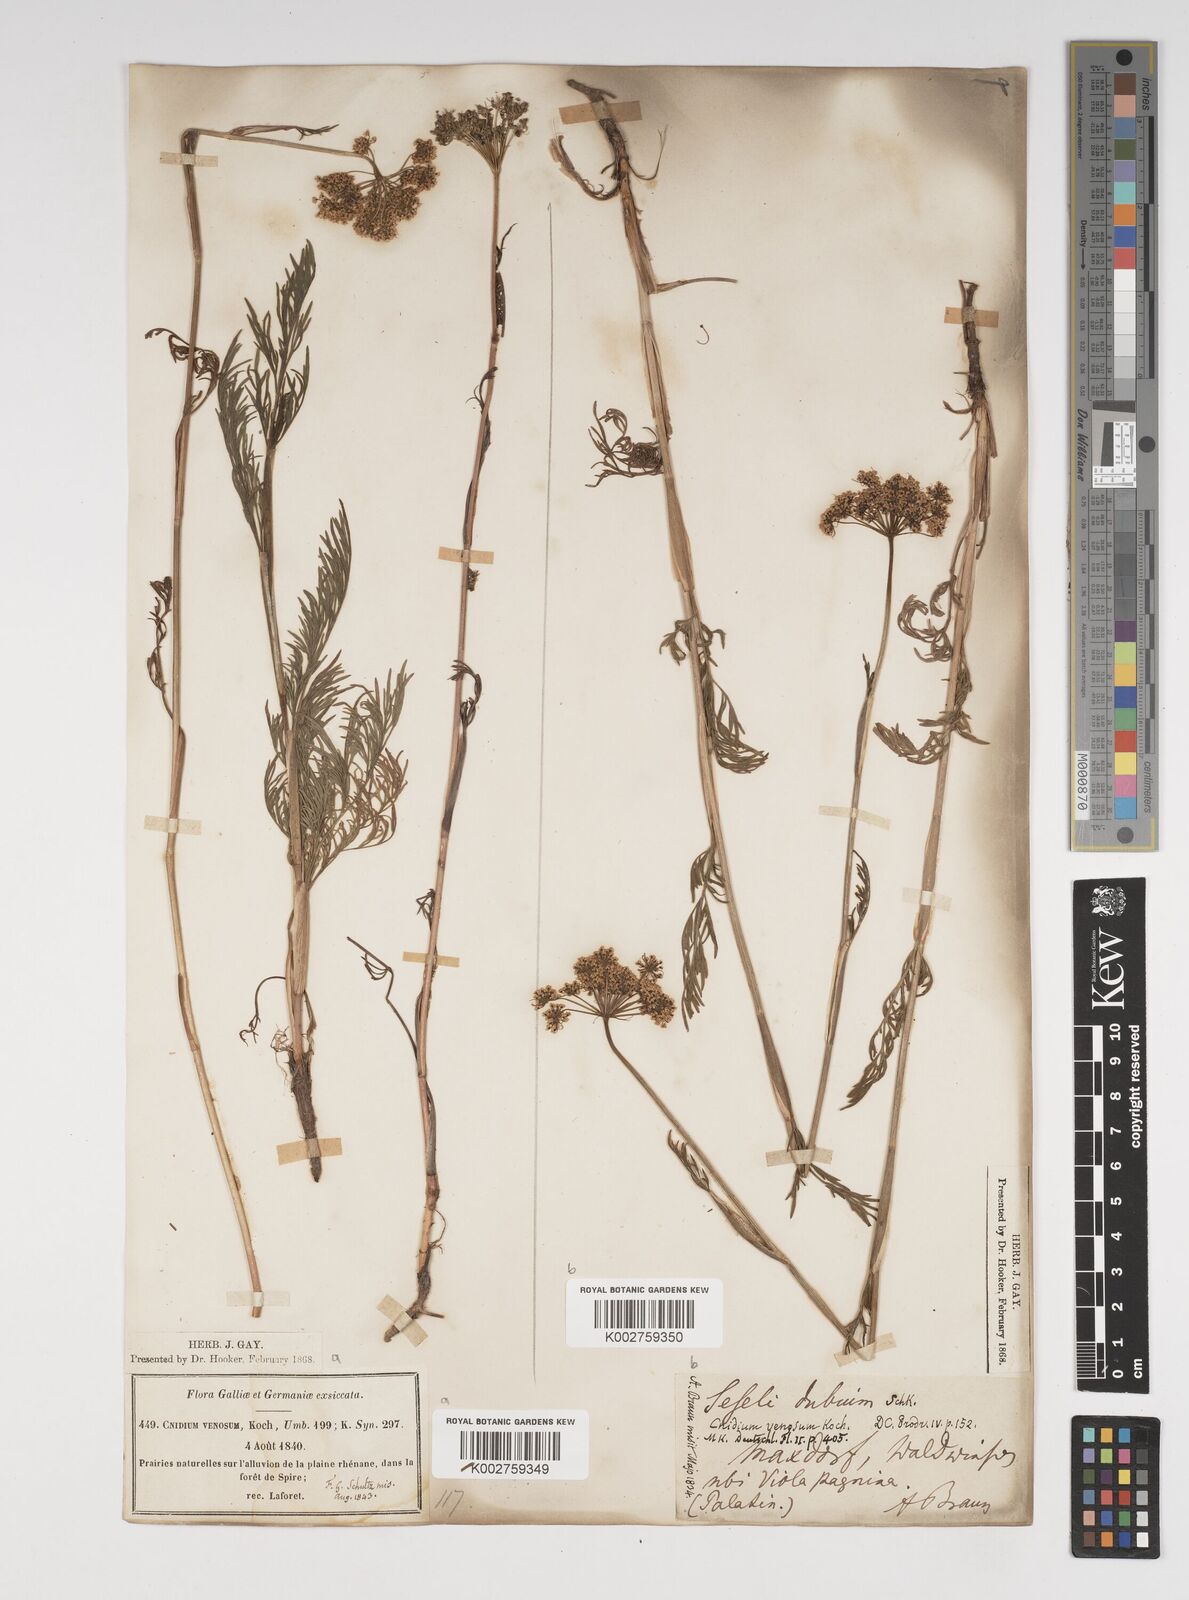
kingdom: Plantae
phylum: Tracheophyta
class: Magnoliopsida
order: Apiales
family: Apiaceae
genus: Kadenia
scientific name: Kadenia dubia
